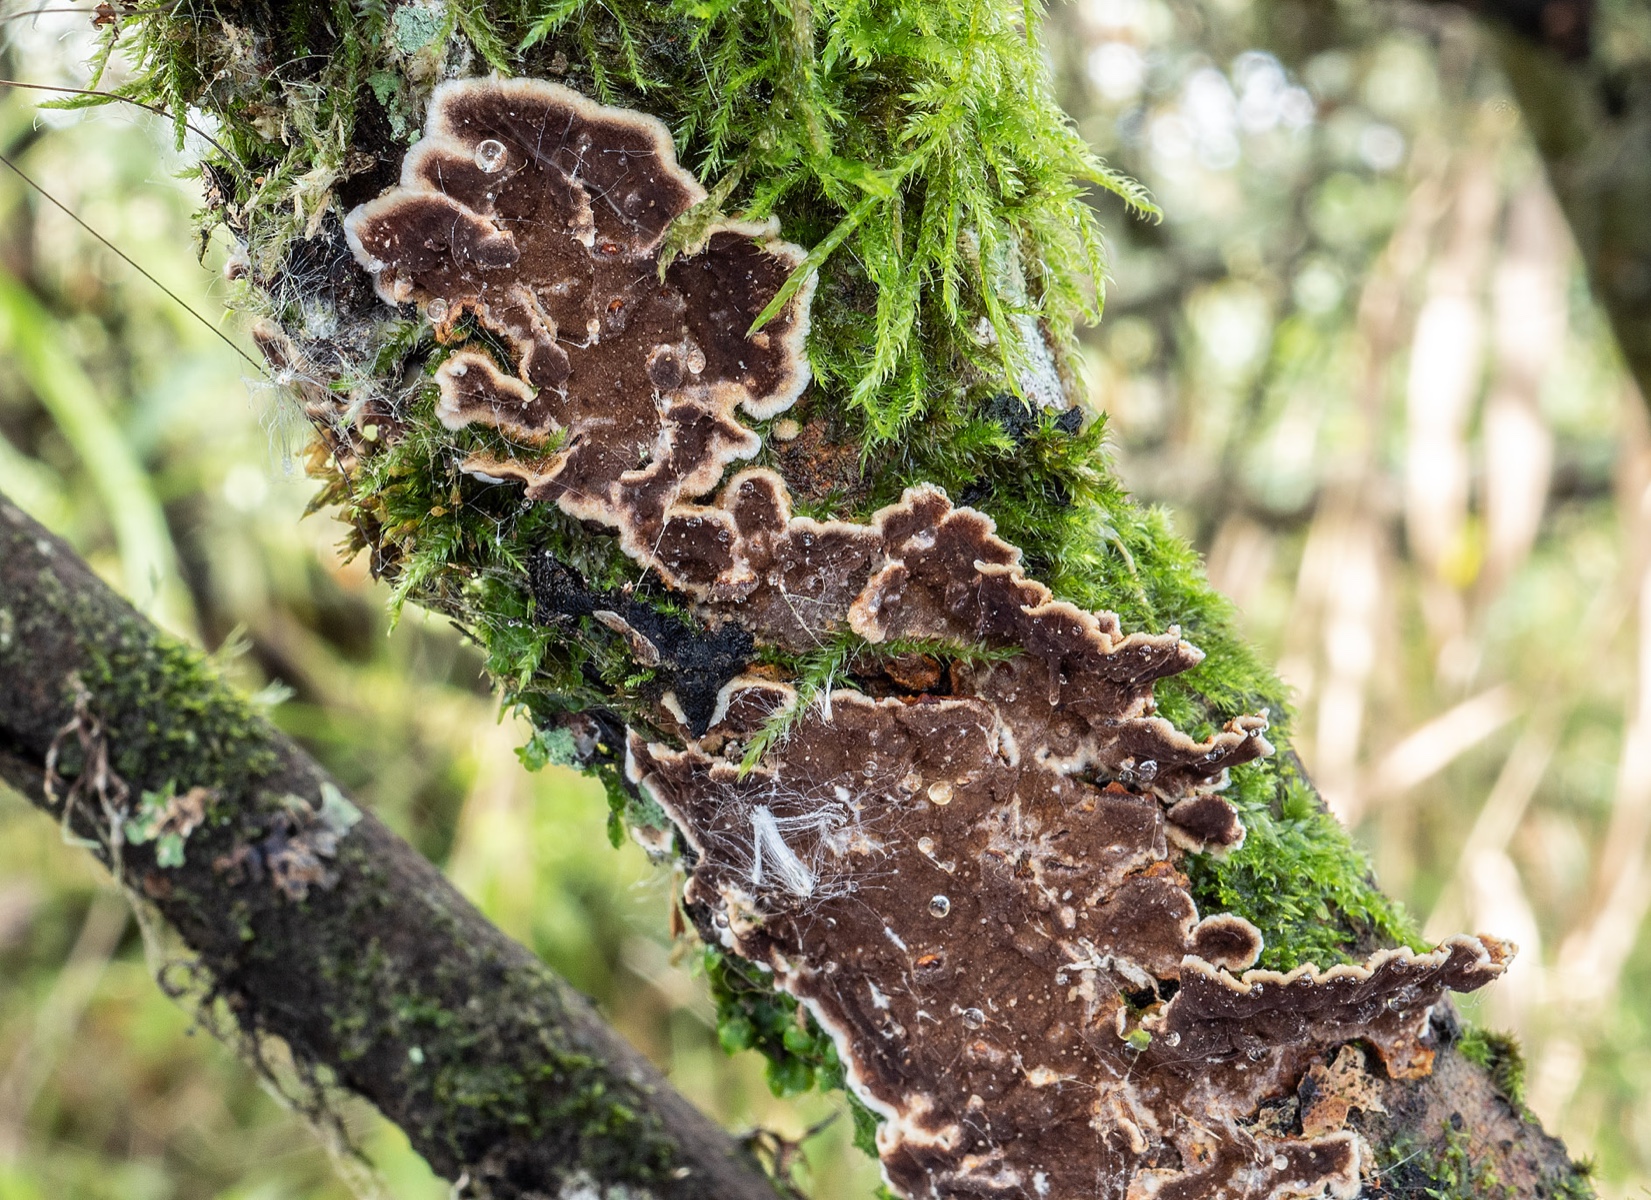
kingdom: Fungi
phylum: Basidiomycota
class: Agaricomycetes
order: Hymenochaetales
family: Hymenochaetaceae
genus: Hydnoporia
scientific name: Hydnoporia tabacina
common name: tobaksbrun ruslædersvamp
